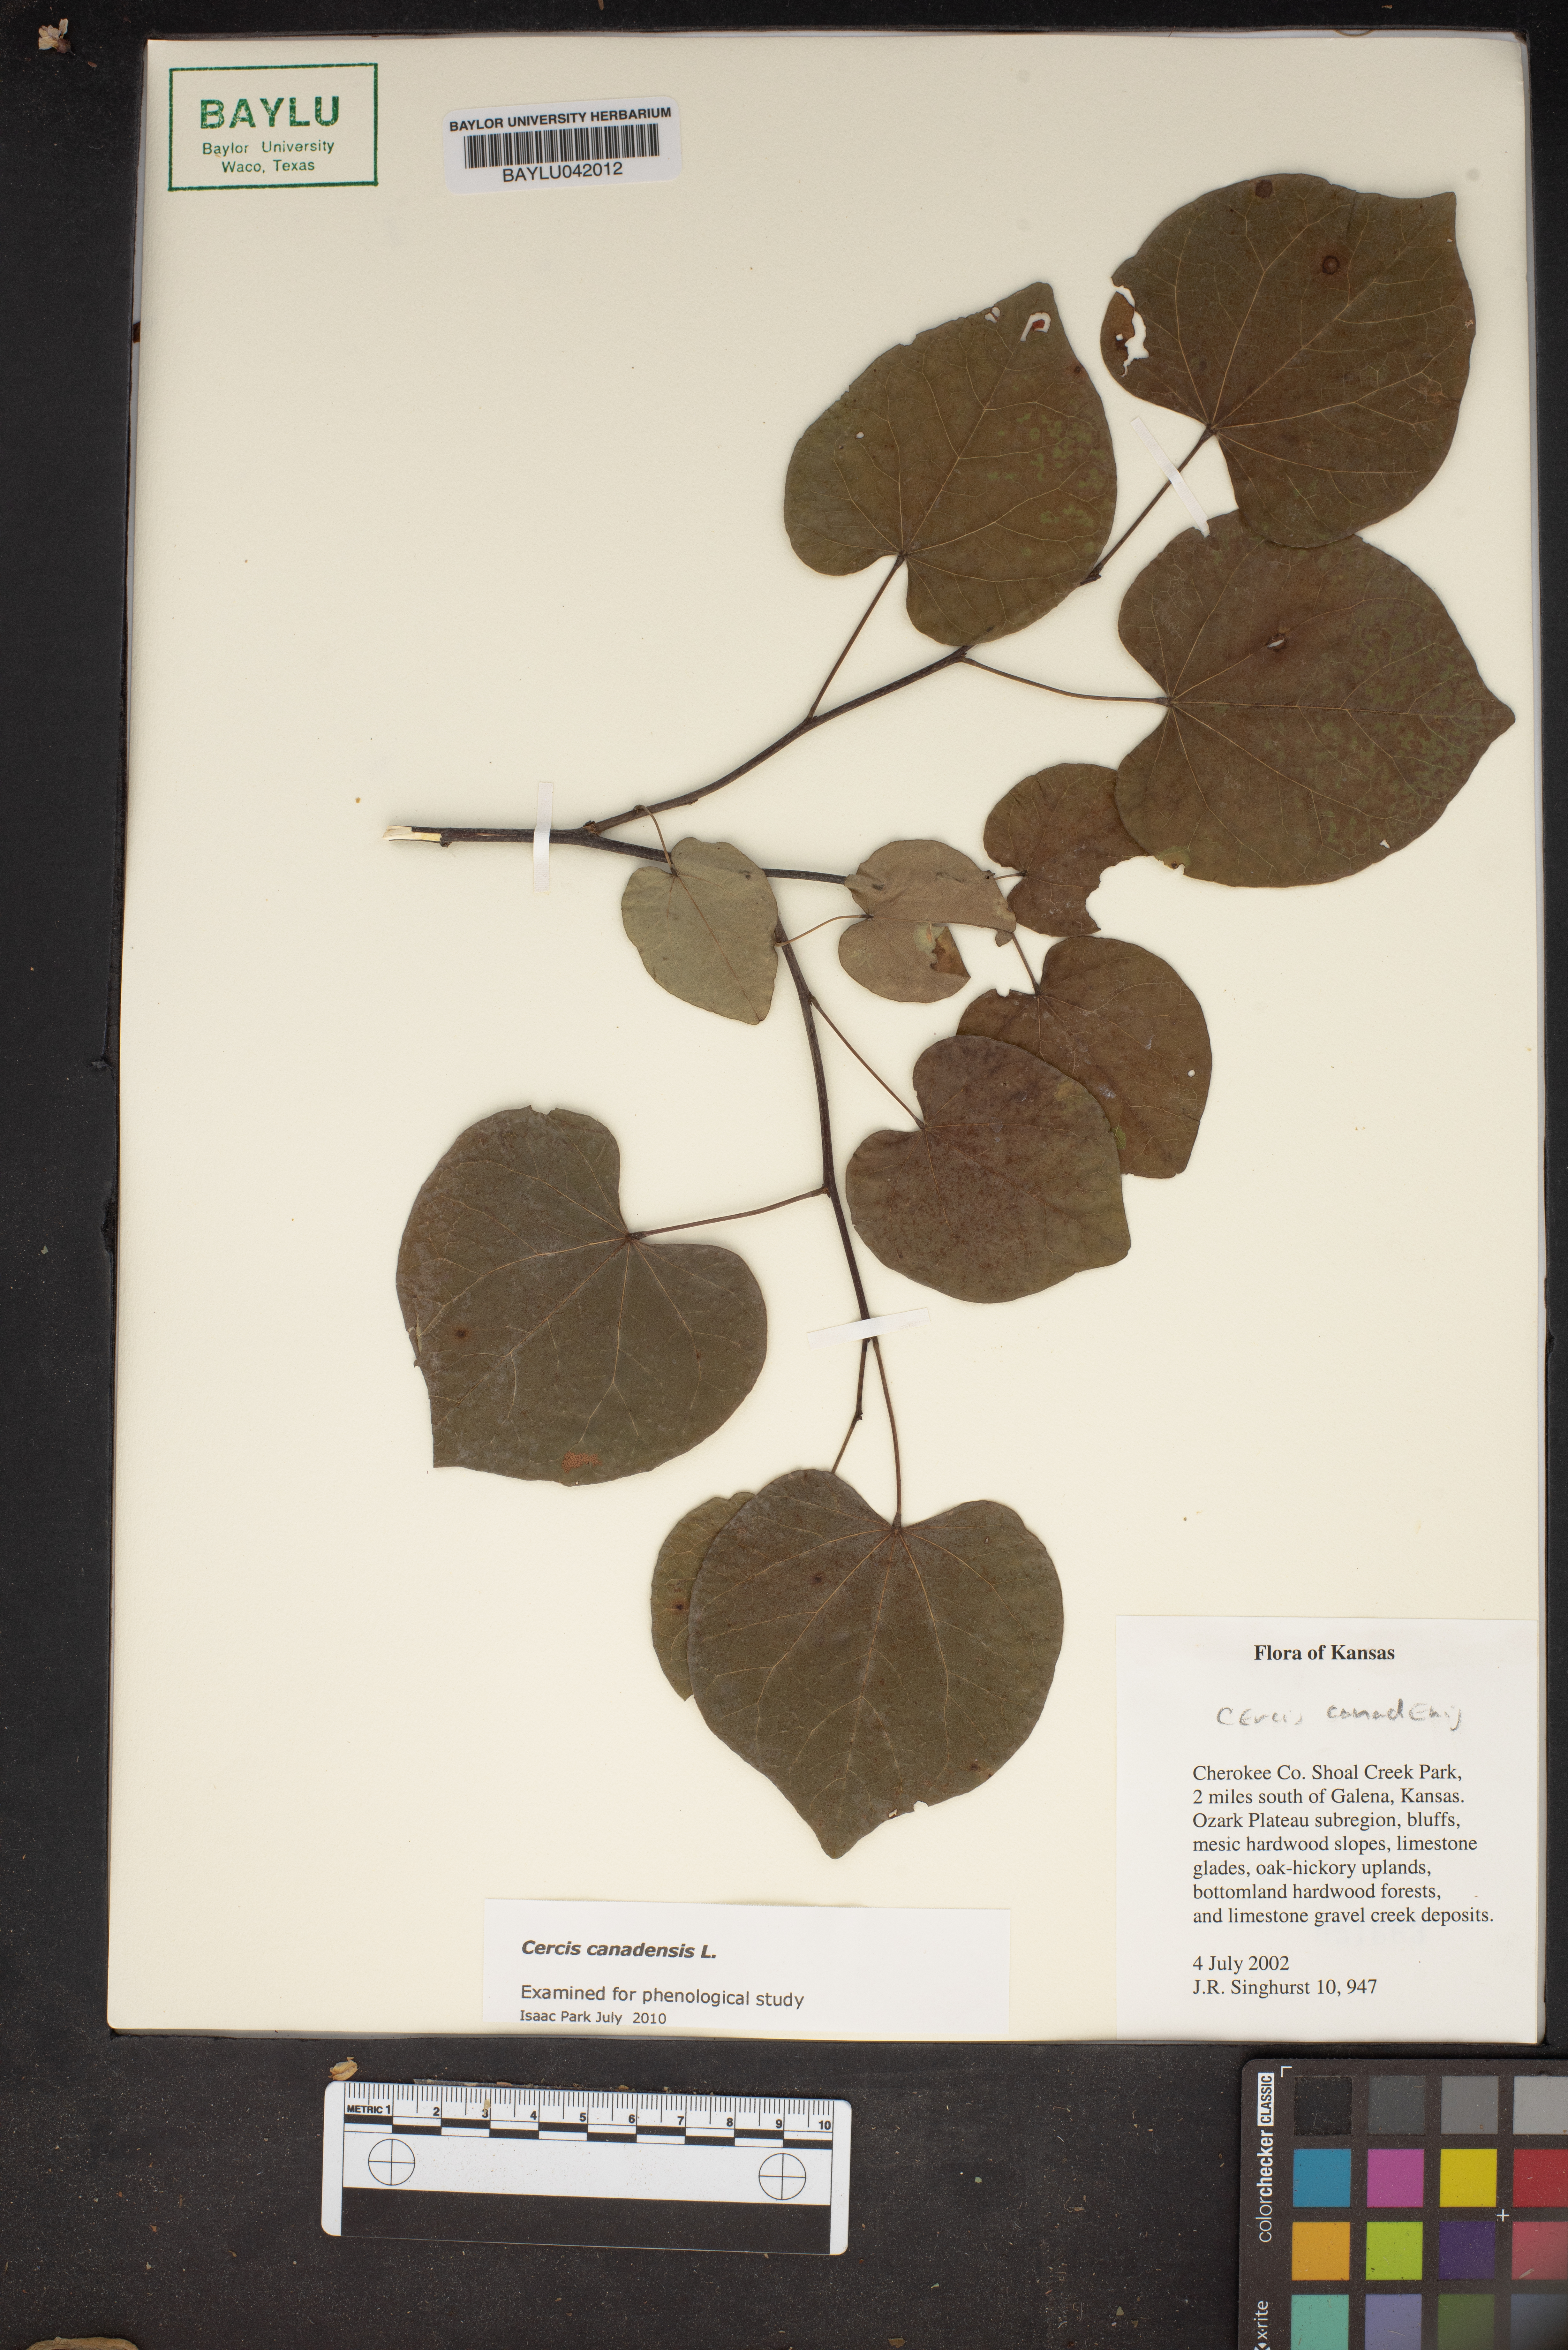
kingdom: Plantae
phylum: Tracheophyta
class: Magnoliopsida
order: Fabales
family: Fabaceae
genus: Cercis
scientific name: Cercis canadensis
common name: Eastern redbud
